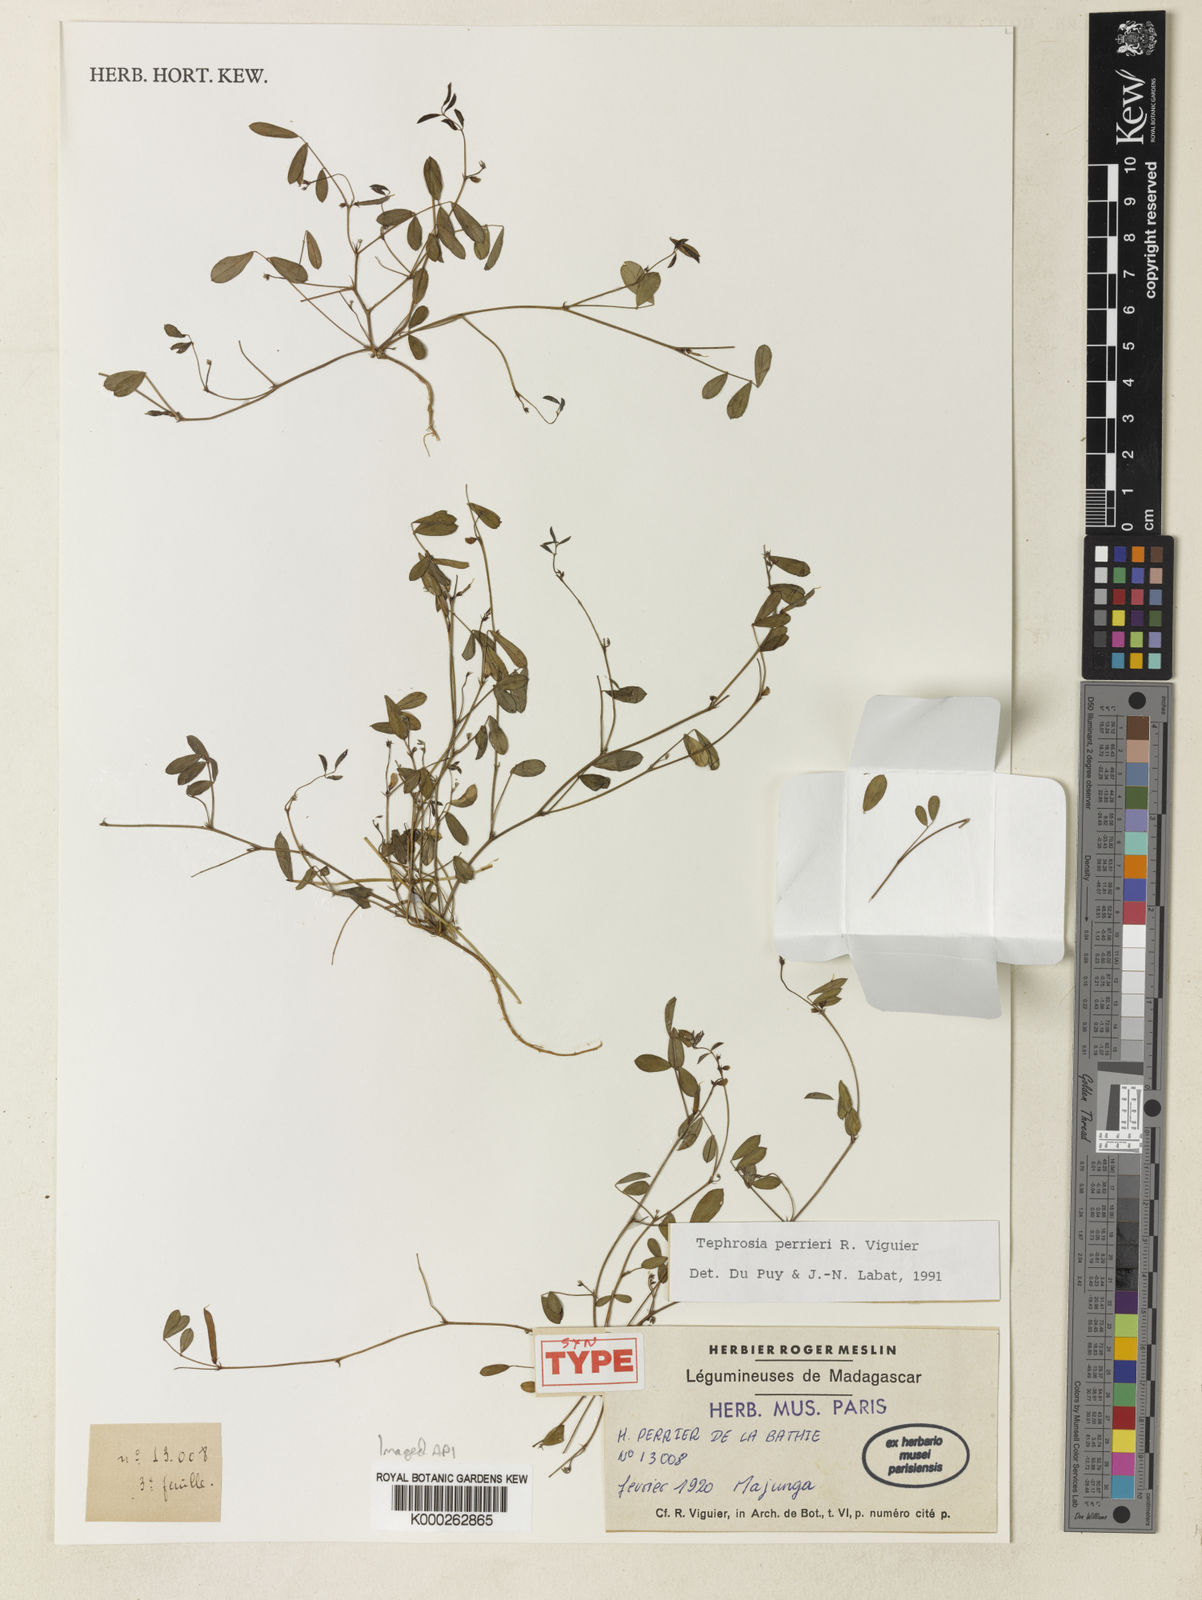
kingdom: Plantae
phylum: Tracheophyta
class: Magnoliopsida
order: Fabales
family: Fabaceae
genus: Tephrosia
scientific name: Tephrosia perrieri
